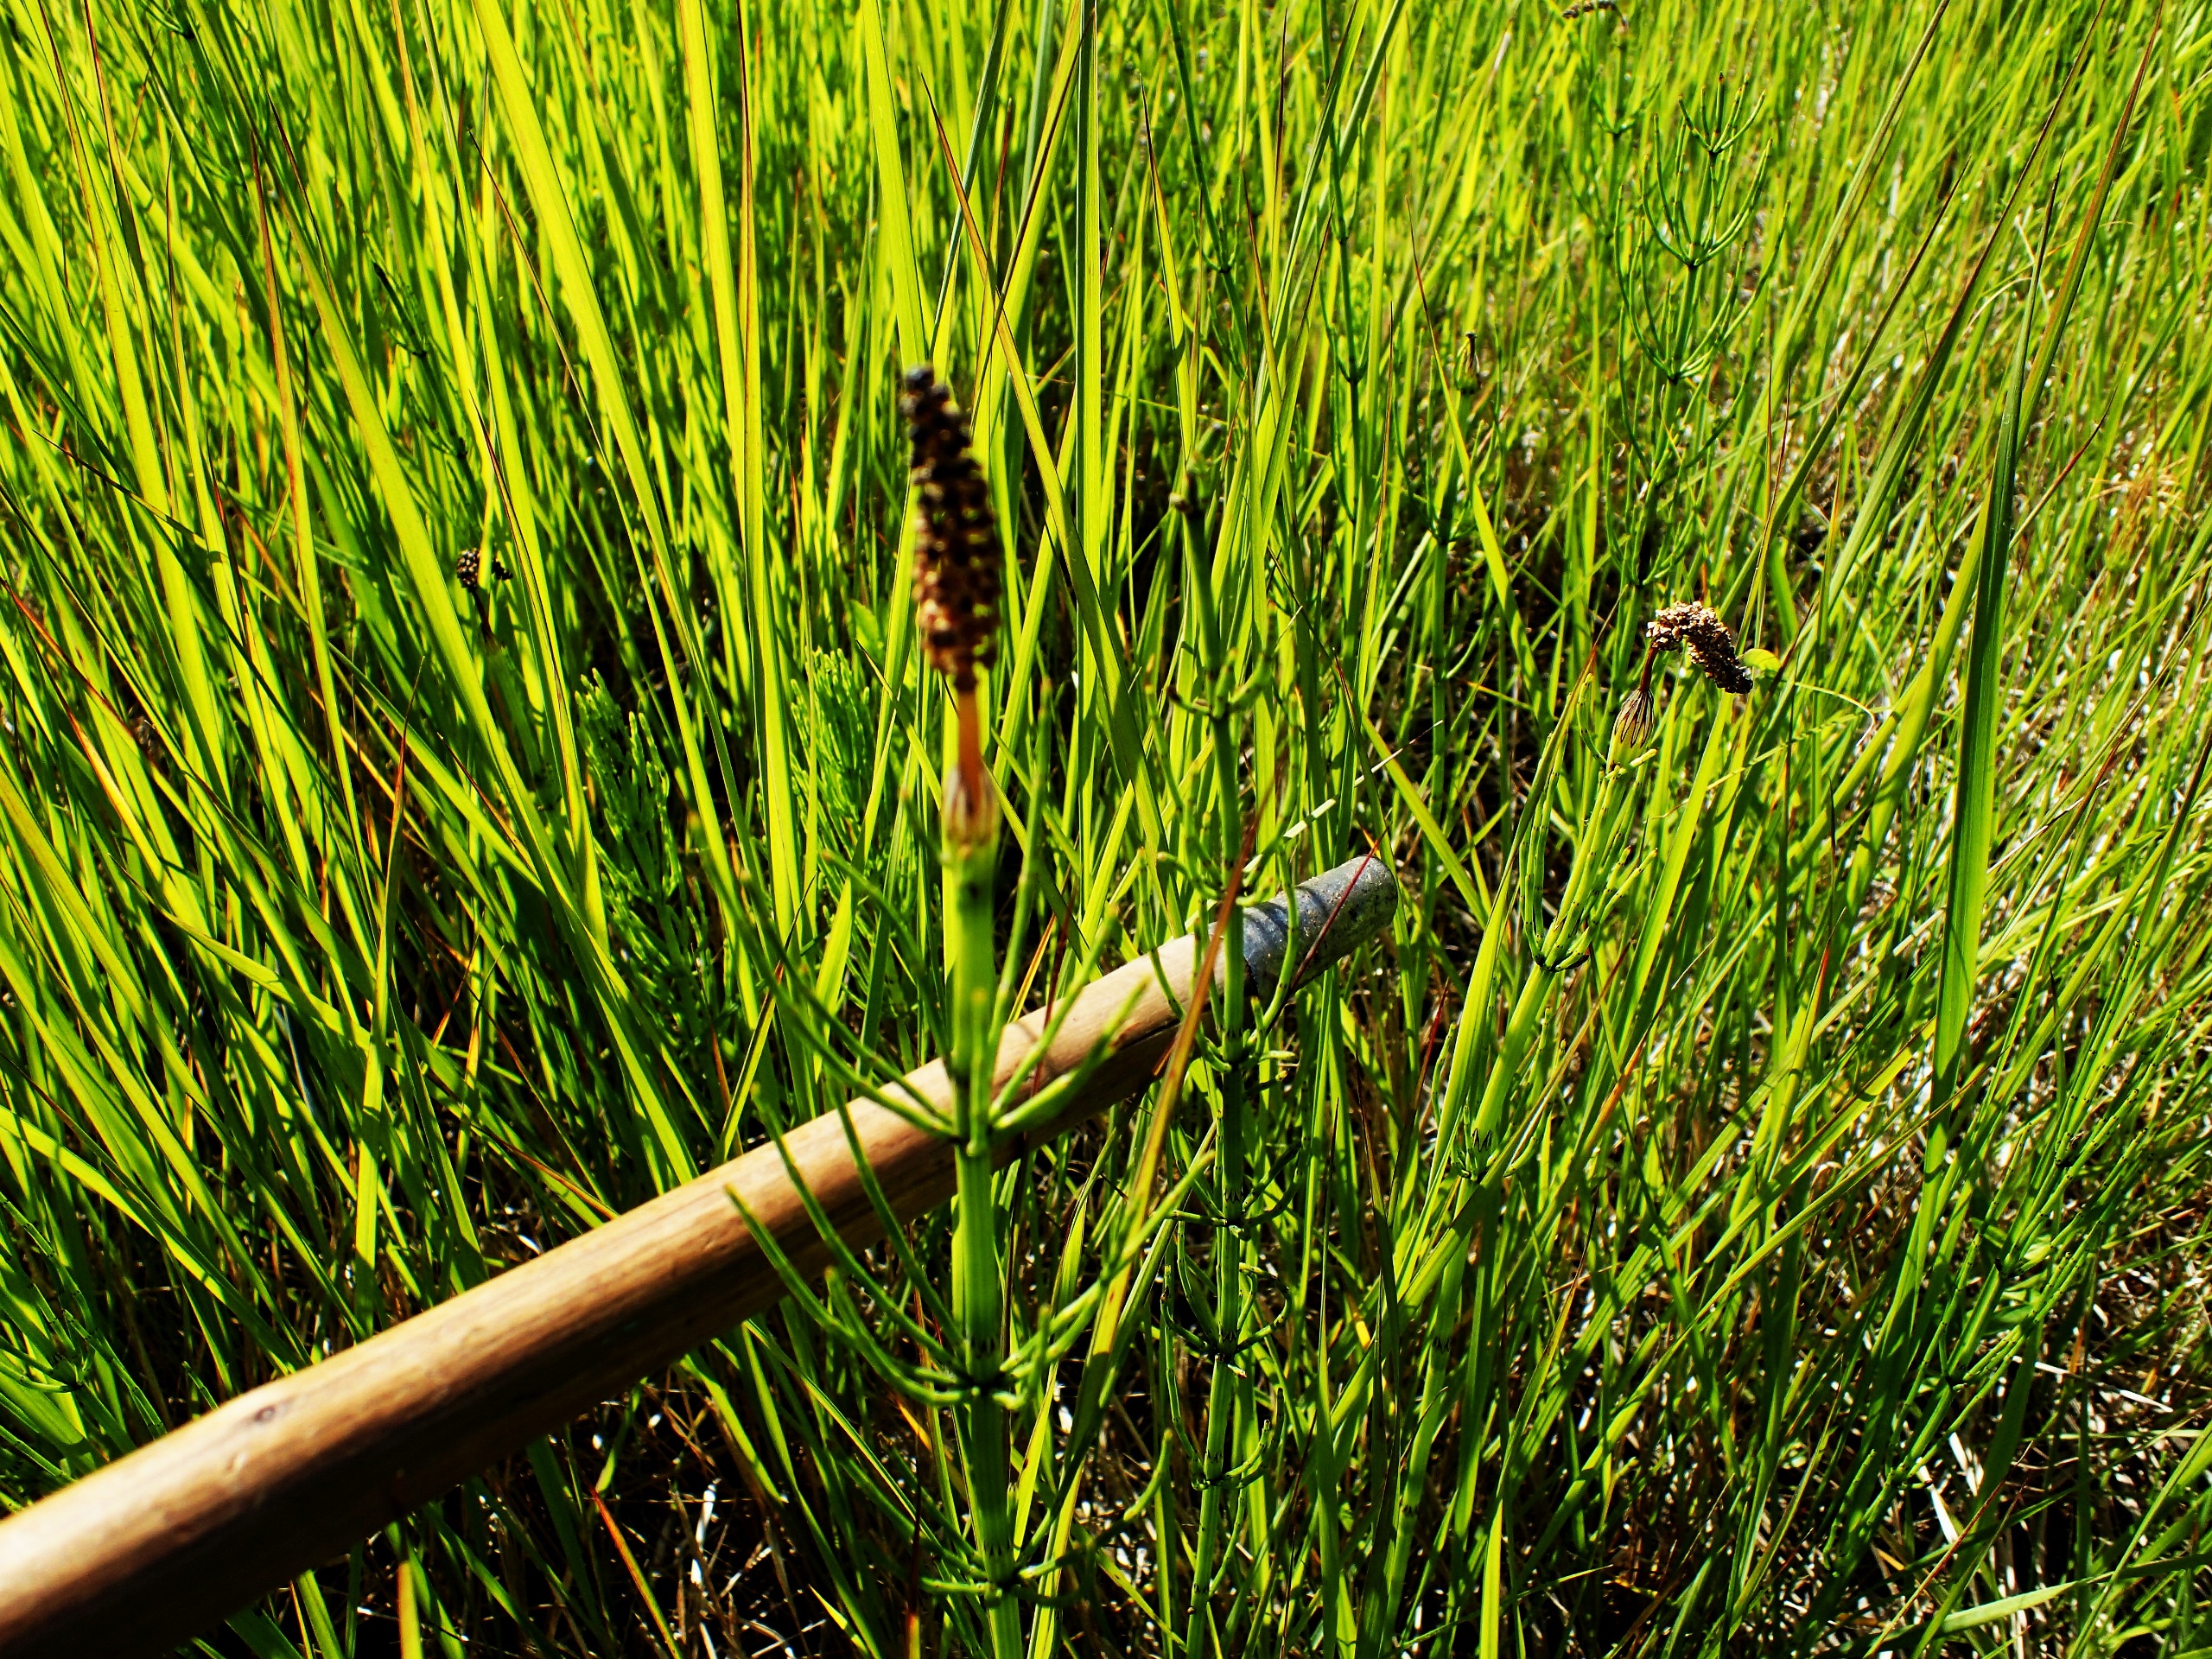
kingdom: Plantae
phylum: Tracheophyta
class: Polypodiopsida
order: Equisetales
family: Equisetaceae
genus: Equisetum
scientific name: Equisetum palustre
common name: Kær-padderok
